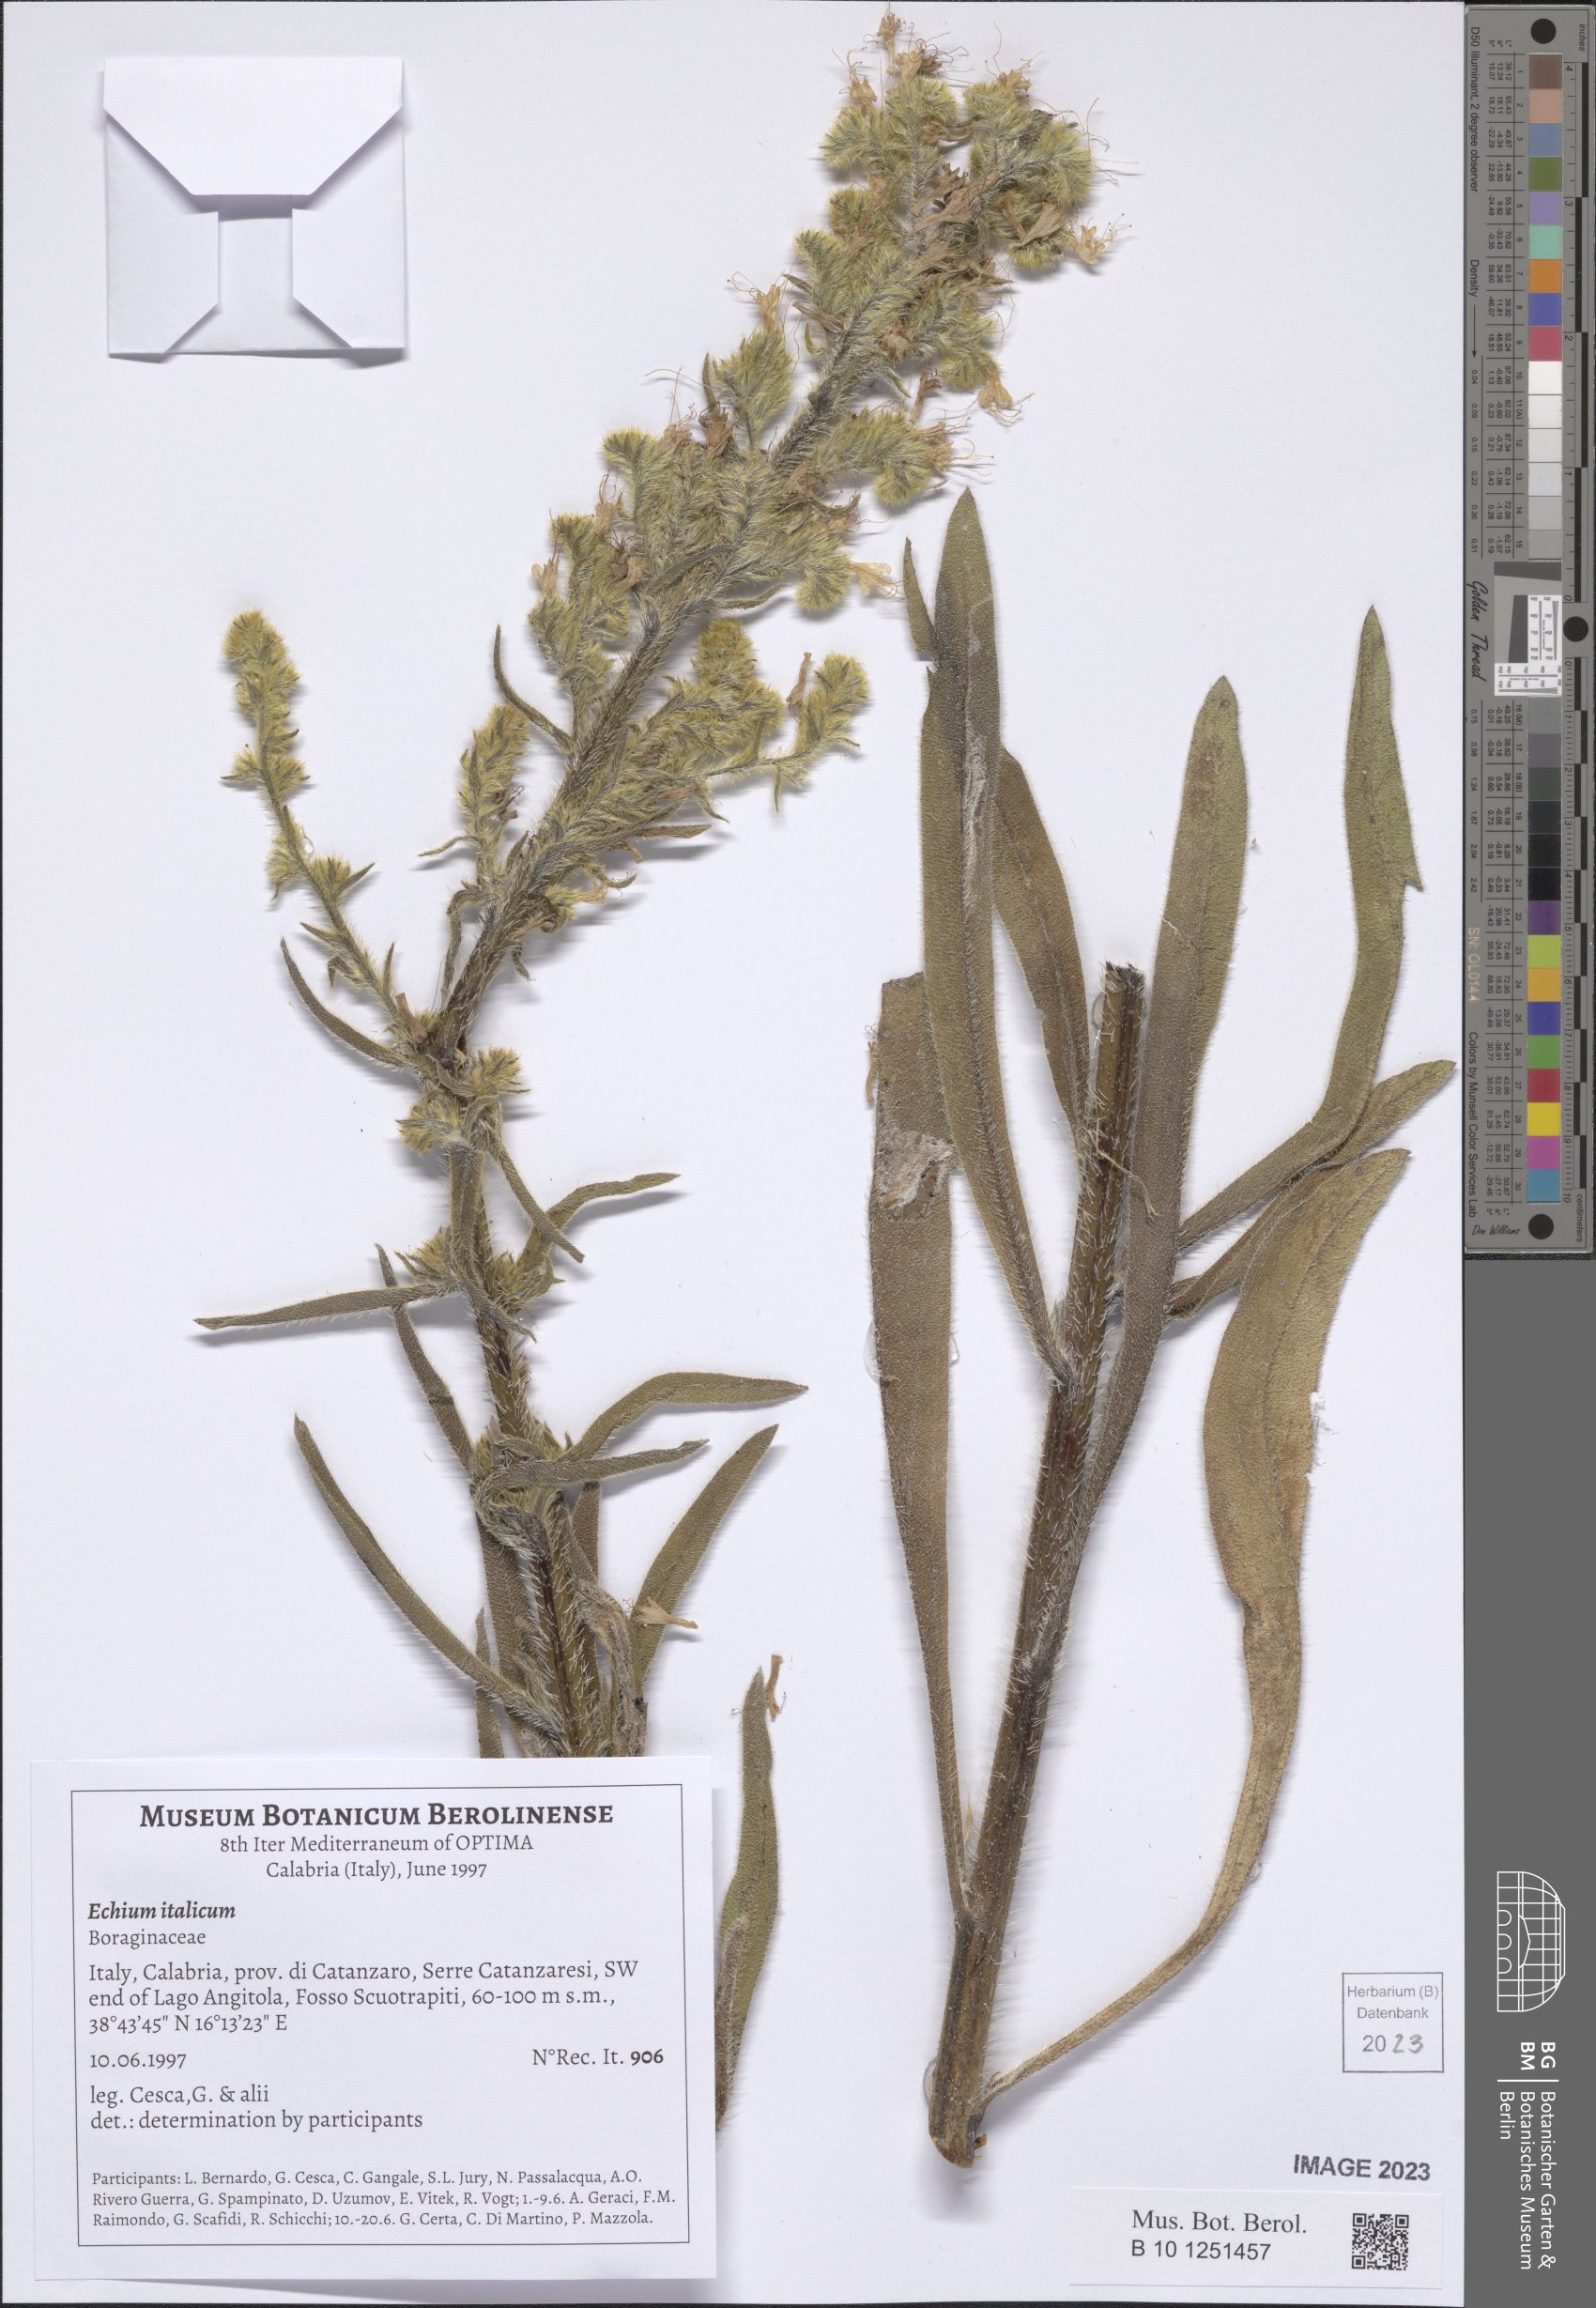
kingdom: Plantae
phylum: Tracheophyta
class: Magnoliopsida
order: Boraginales
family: Boraginaceae
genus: Echium
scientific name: Echium italicum
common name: Italian viper's bugloss
